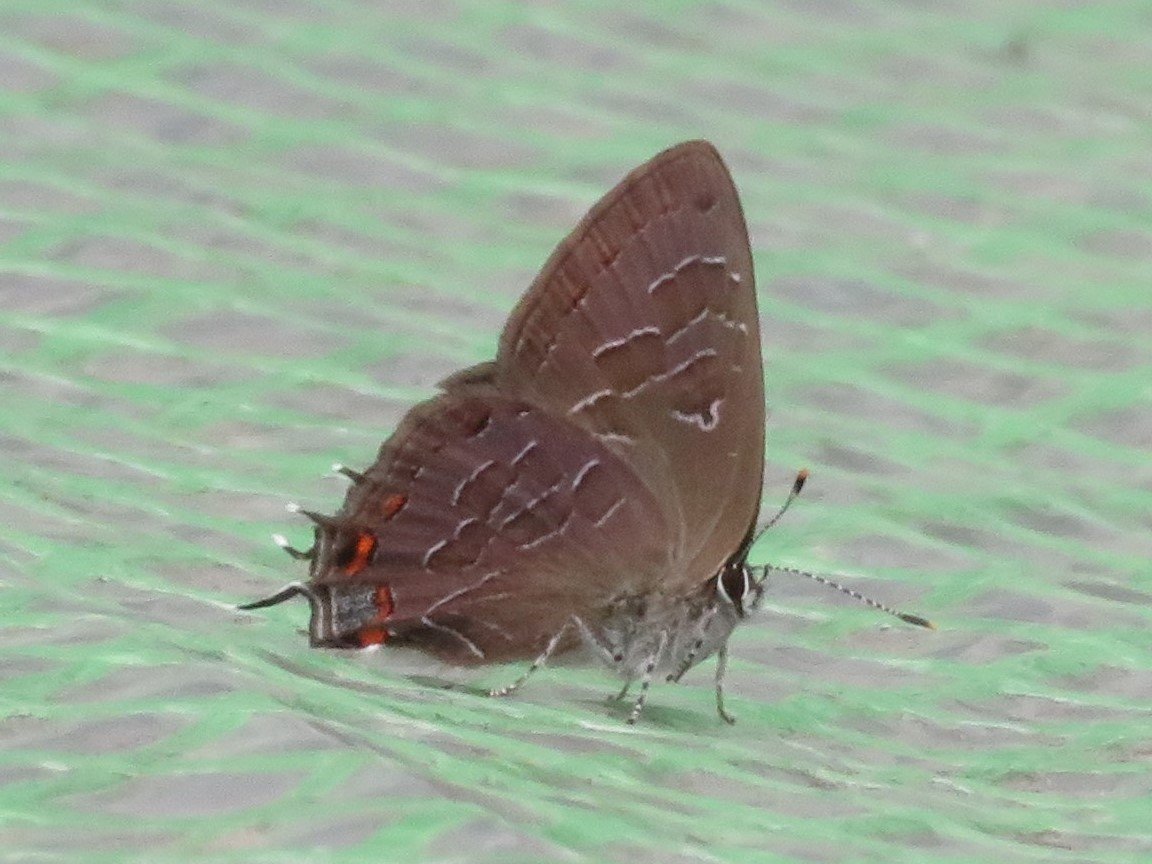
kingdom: Animalia
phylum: Arthropoda
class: Insecta
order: Lepidoptera
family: Lycaenidae
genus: Satyrium
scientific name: Satyrium liparops
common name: Striped Hairstreak
